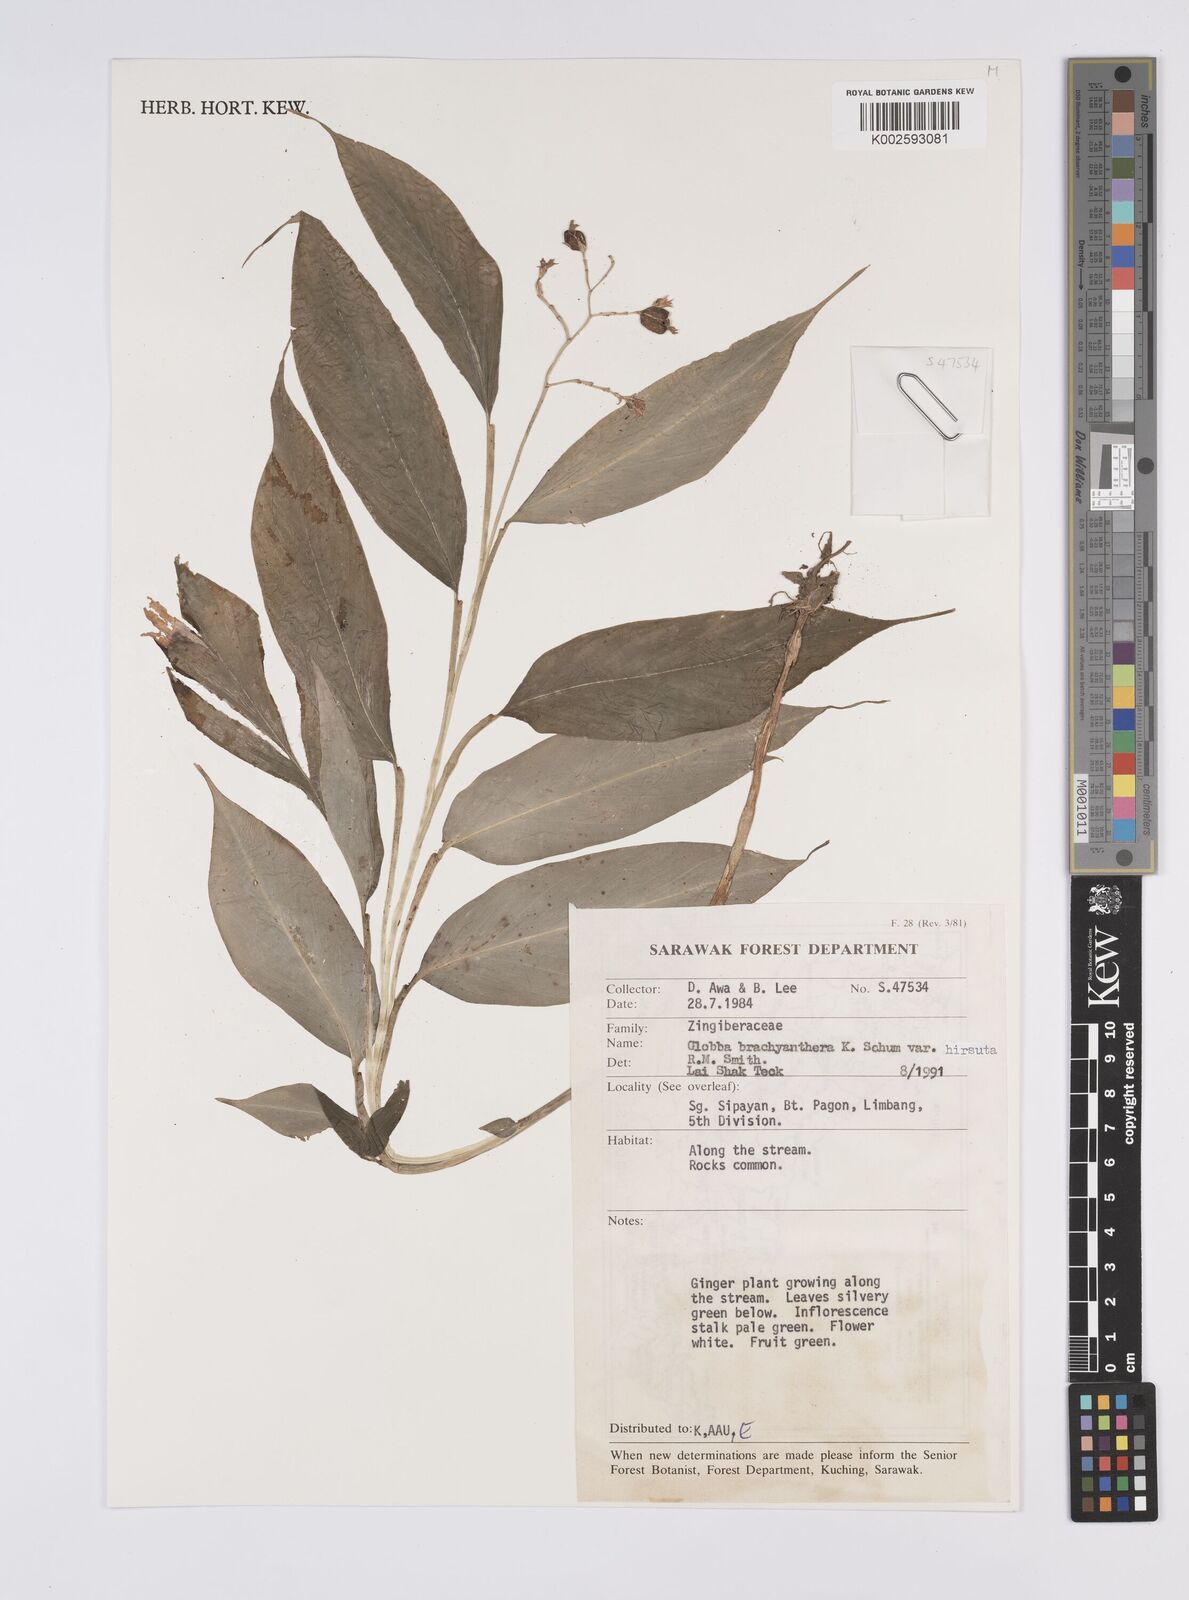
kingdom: Plantae
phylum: Tracheophyta
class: Liliopsida
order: Zingiberales
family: Zingiberaceae
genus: Globba
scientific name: Globba brachyanthera
